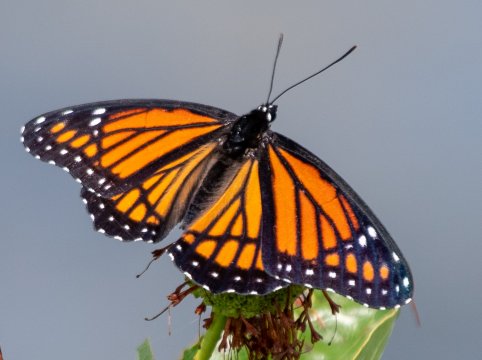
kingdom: Animalia
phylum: Arthropoda
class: Insecta
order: Lepidoptera
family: Nymphalidae
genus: Limenitis
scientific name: Limenitis archippus
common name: Viceroy
